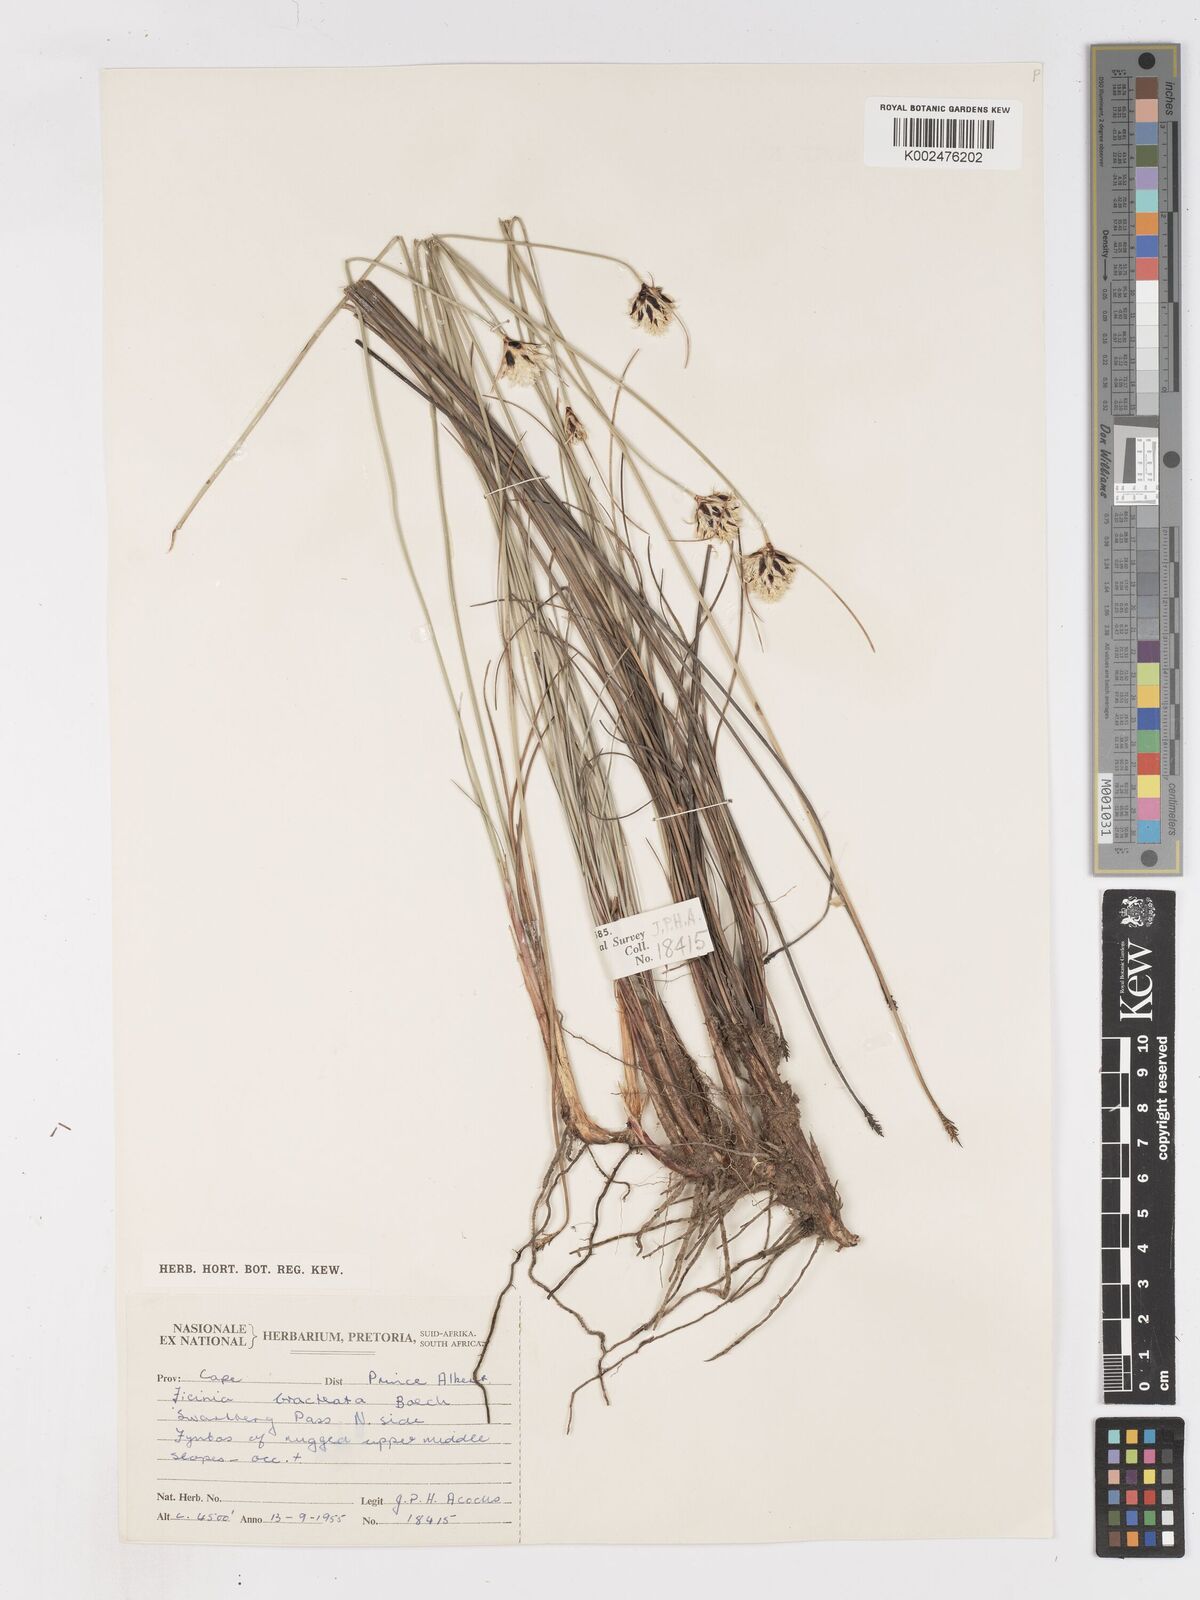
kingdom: Plantae
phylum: Tracheophyta
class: Liliopsida
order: Poales
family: Cyperaceae
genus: Ficinia
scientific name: Ficinia nigrescens
